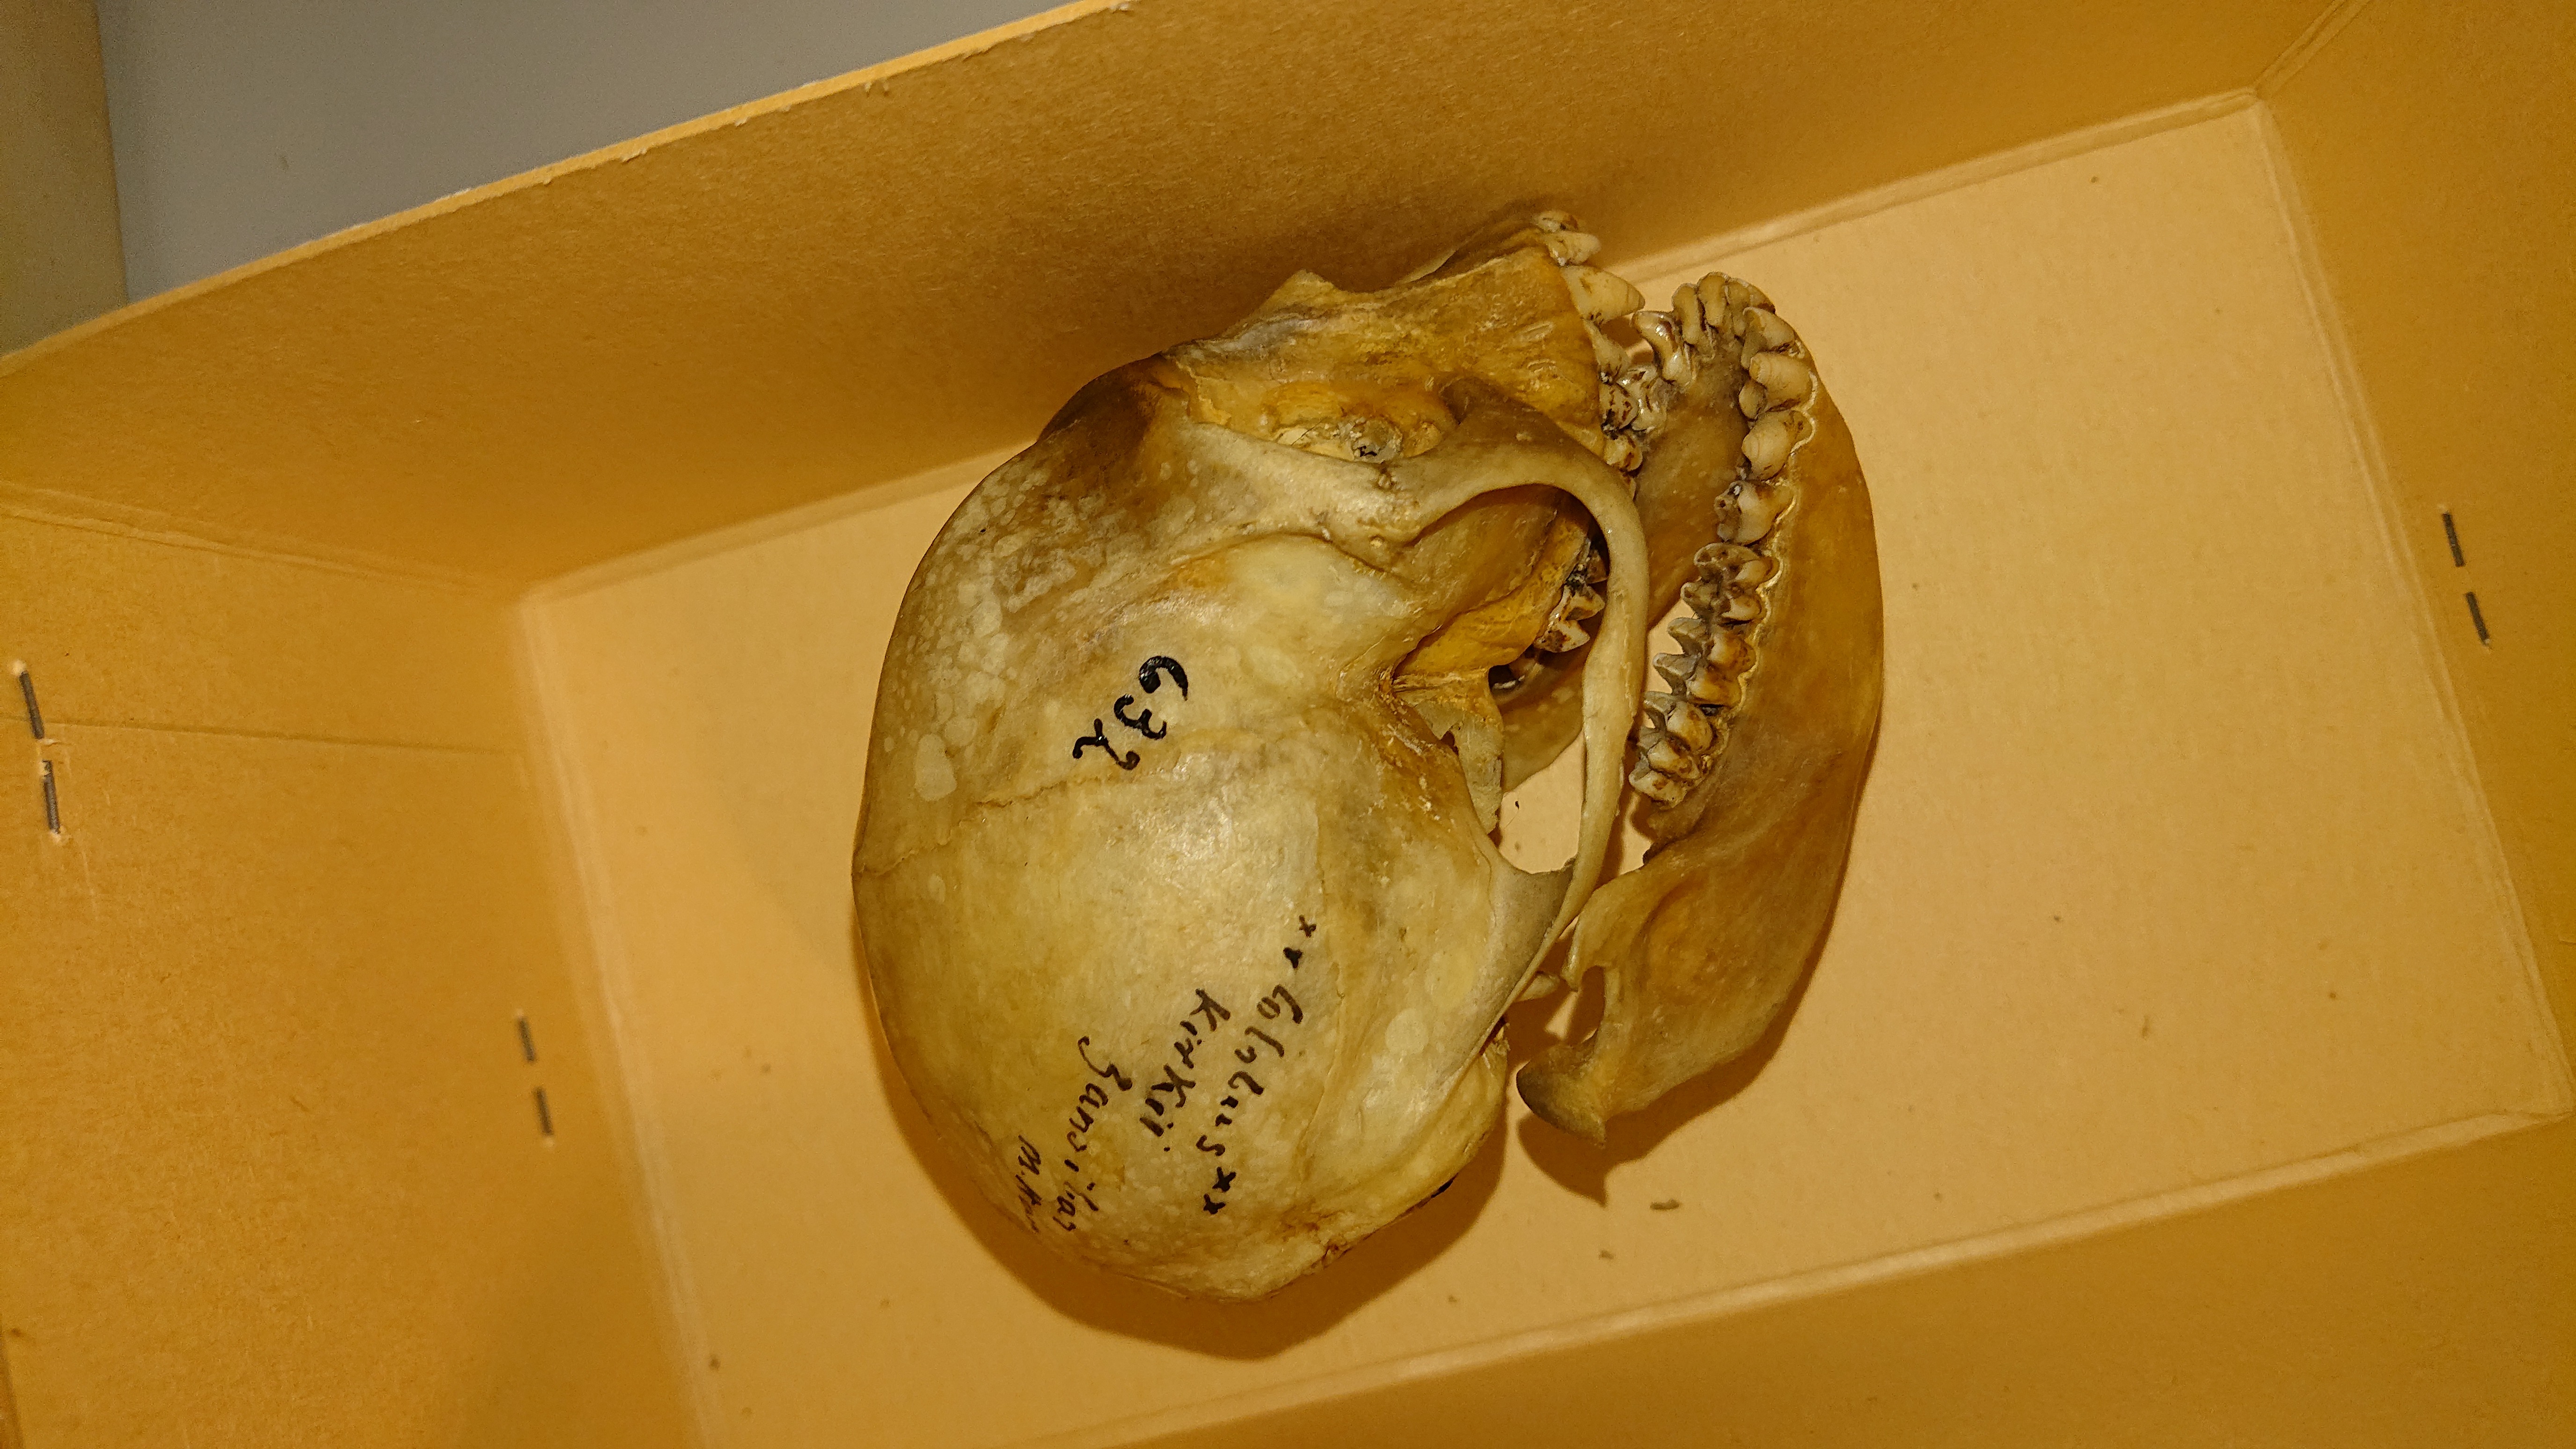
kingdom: Animalia
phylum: Chordata
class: Mammalia
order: Primates
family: Cercopithecidae
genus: Piliocolobus
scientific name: Piliocolobus kirkii
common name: Zanzibar red colobus
